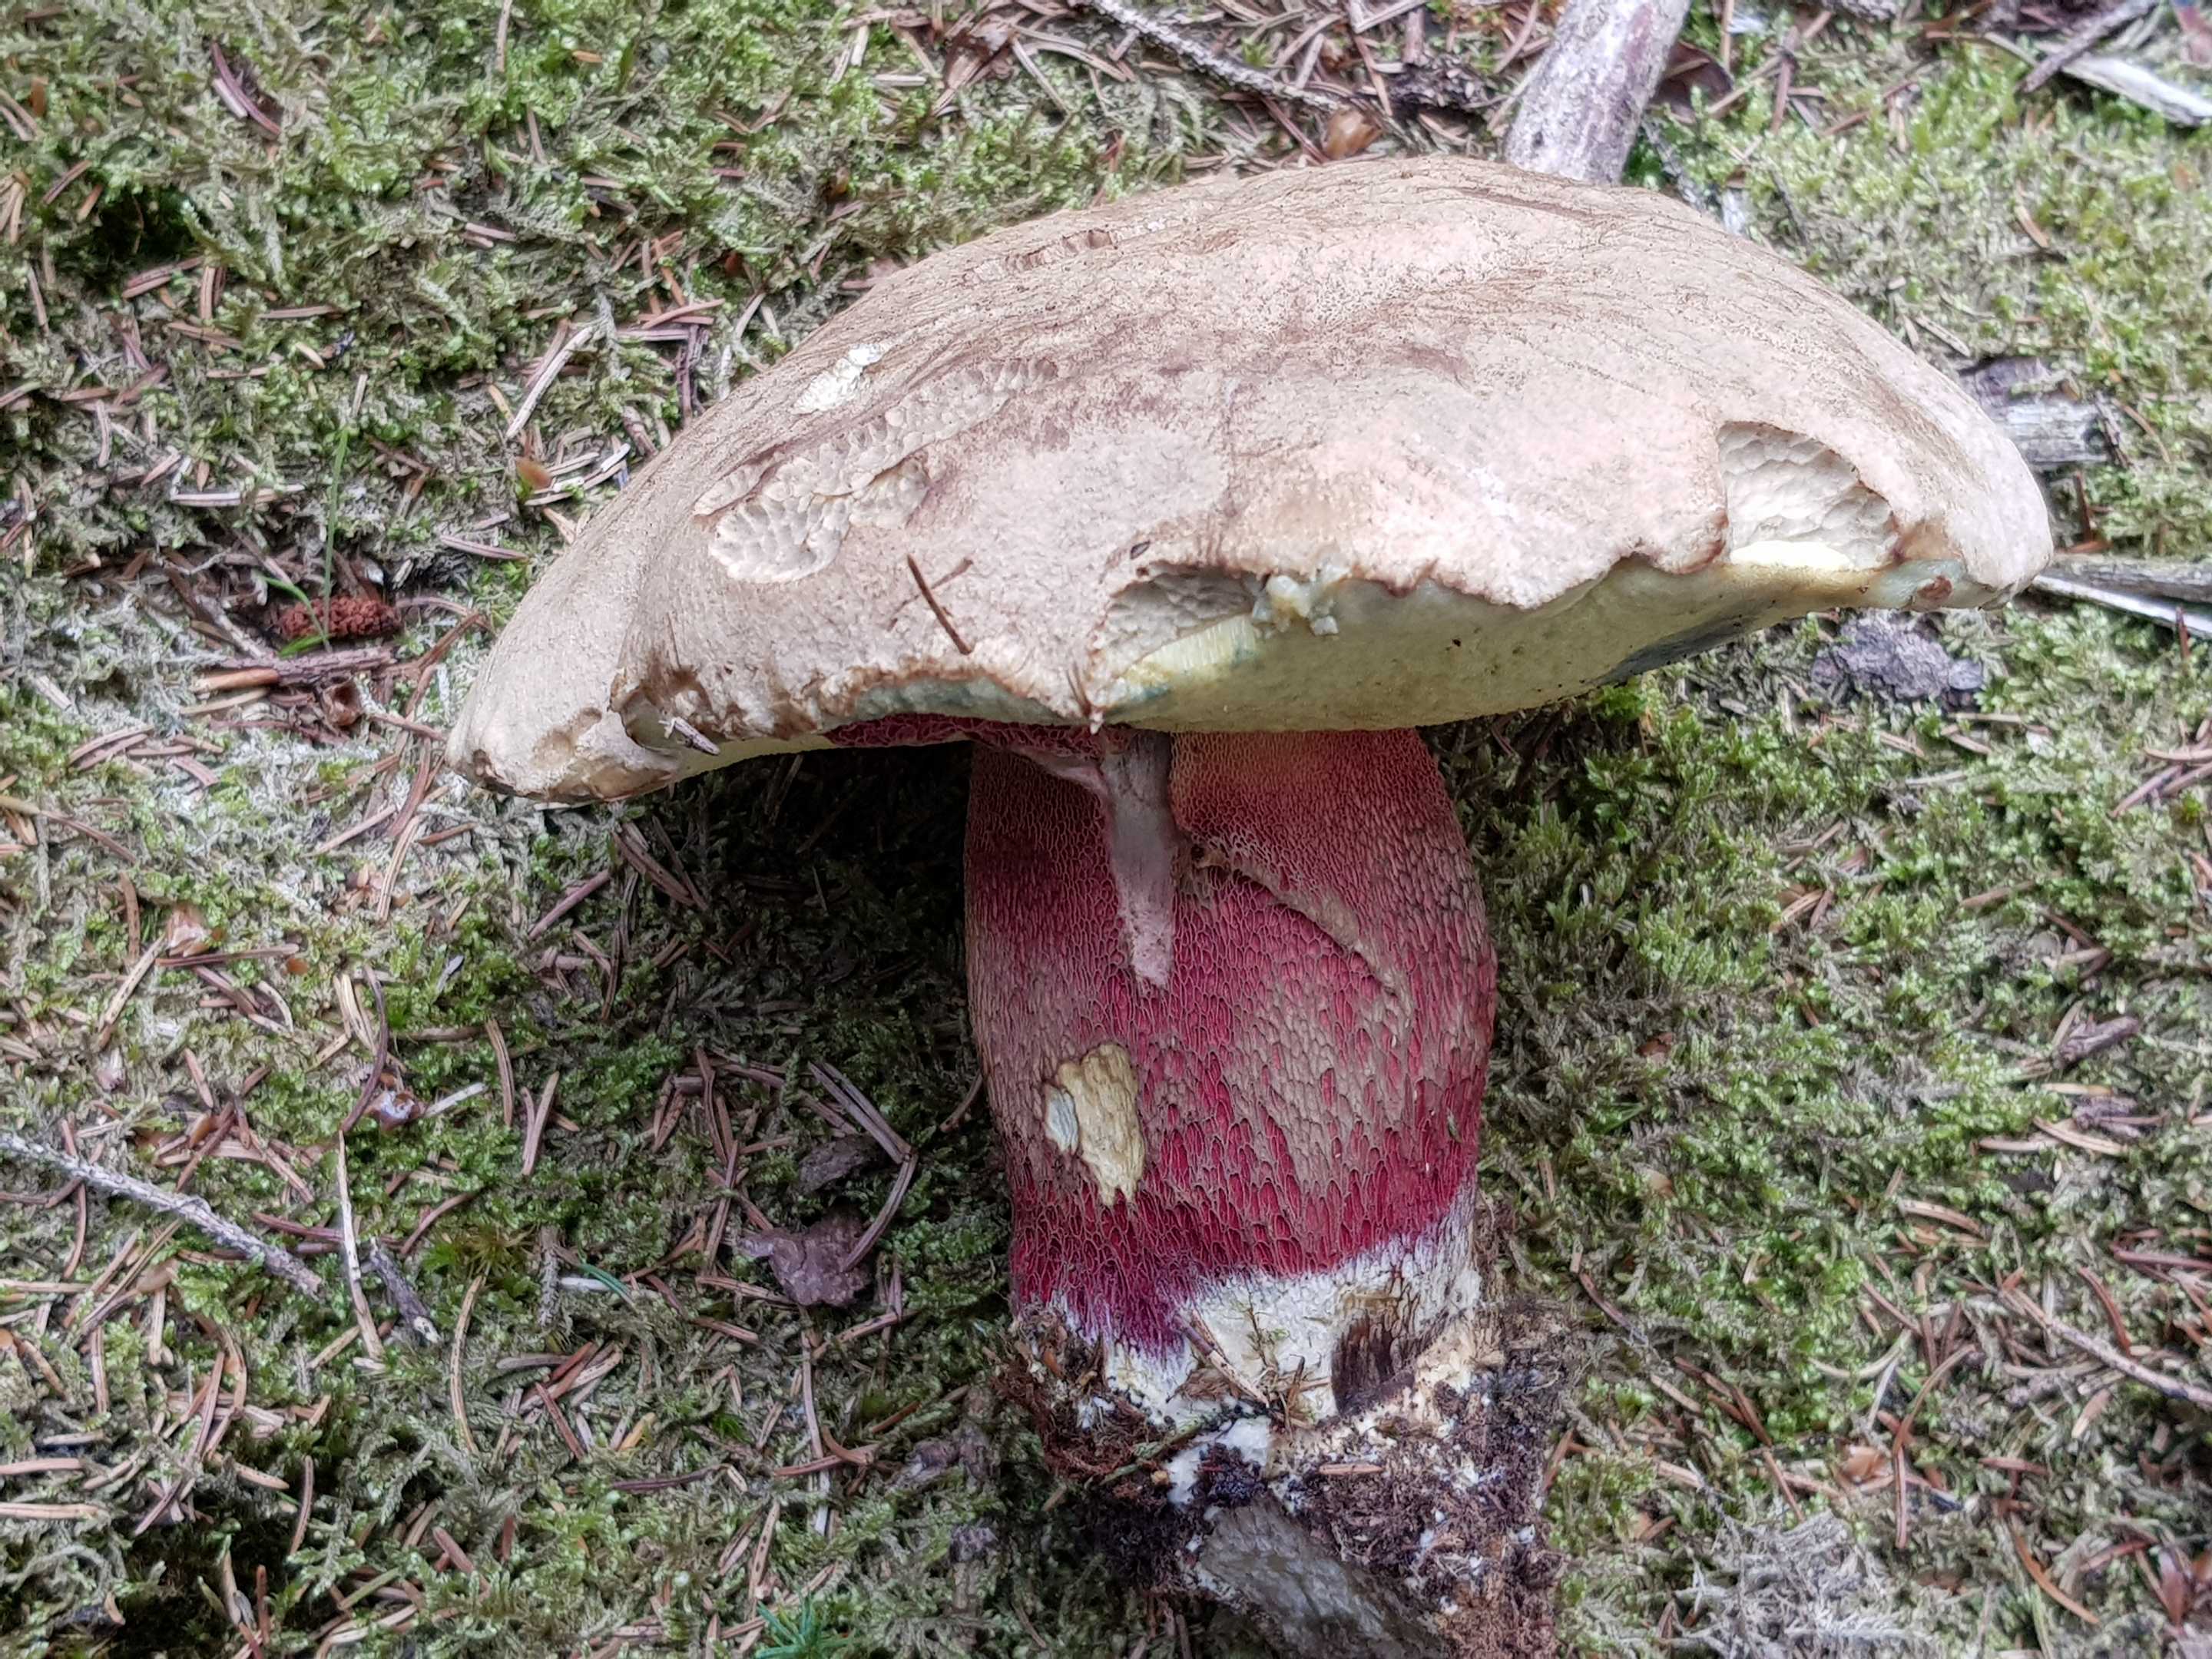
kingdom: Fungi
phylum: Basidiomycota
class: Agaricomycetes
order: Boletales
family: Boletaceae
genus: Caloboletus
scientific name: Caloboletus calopus
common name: skønfodet rørhat
